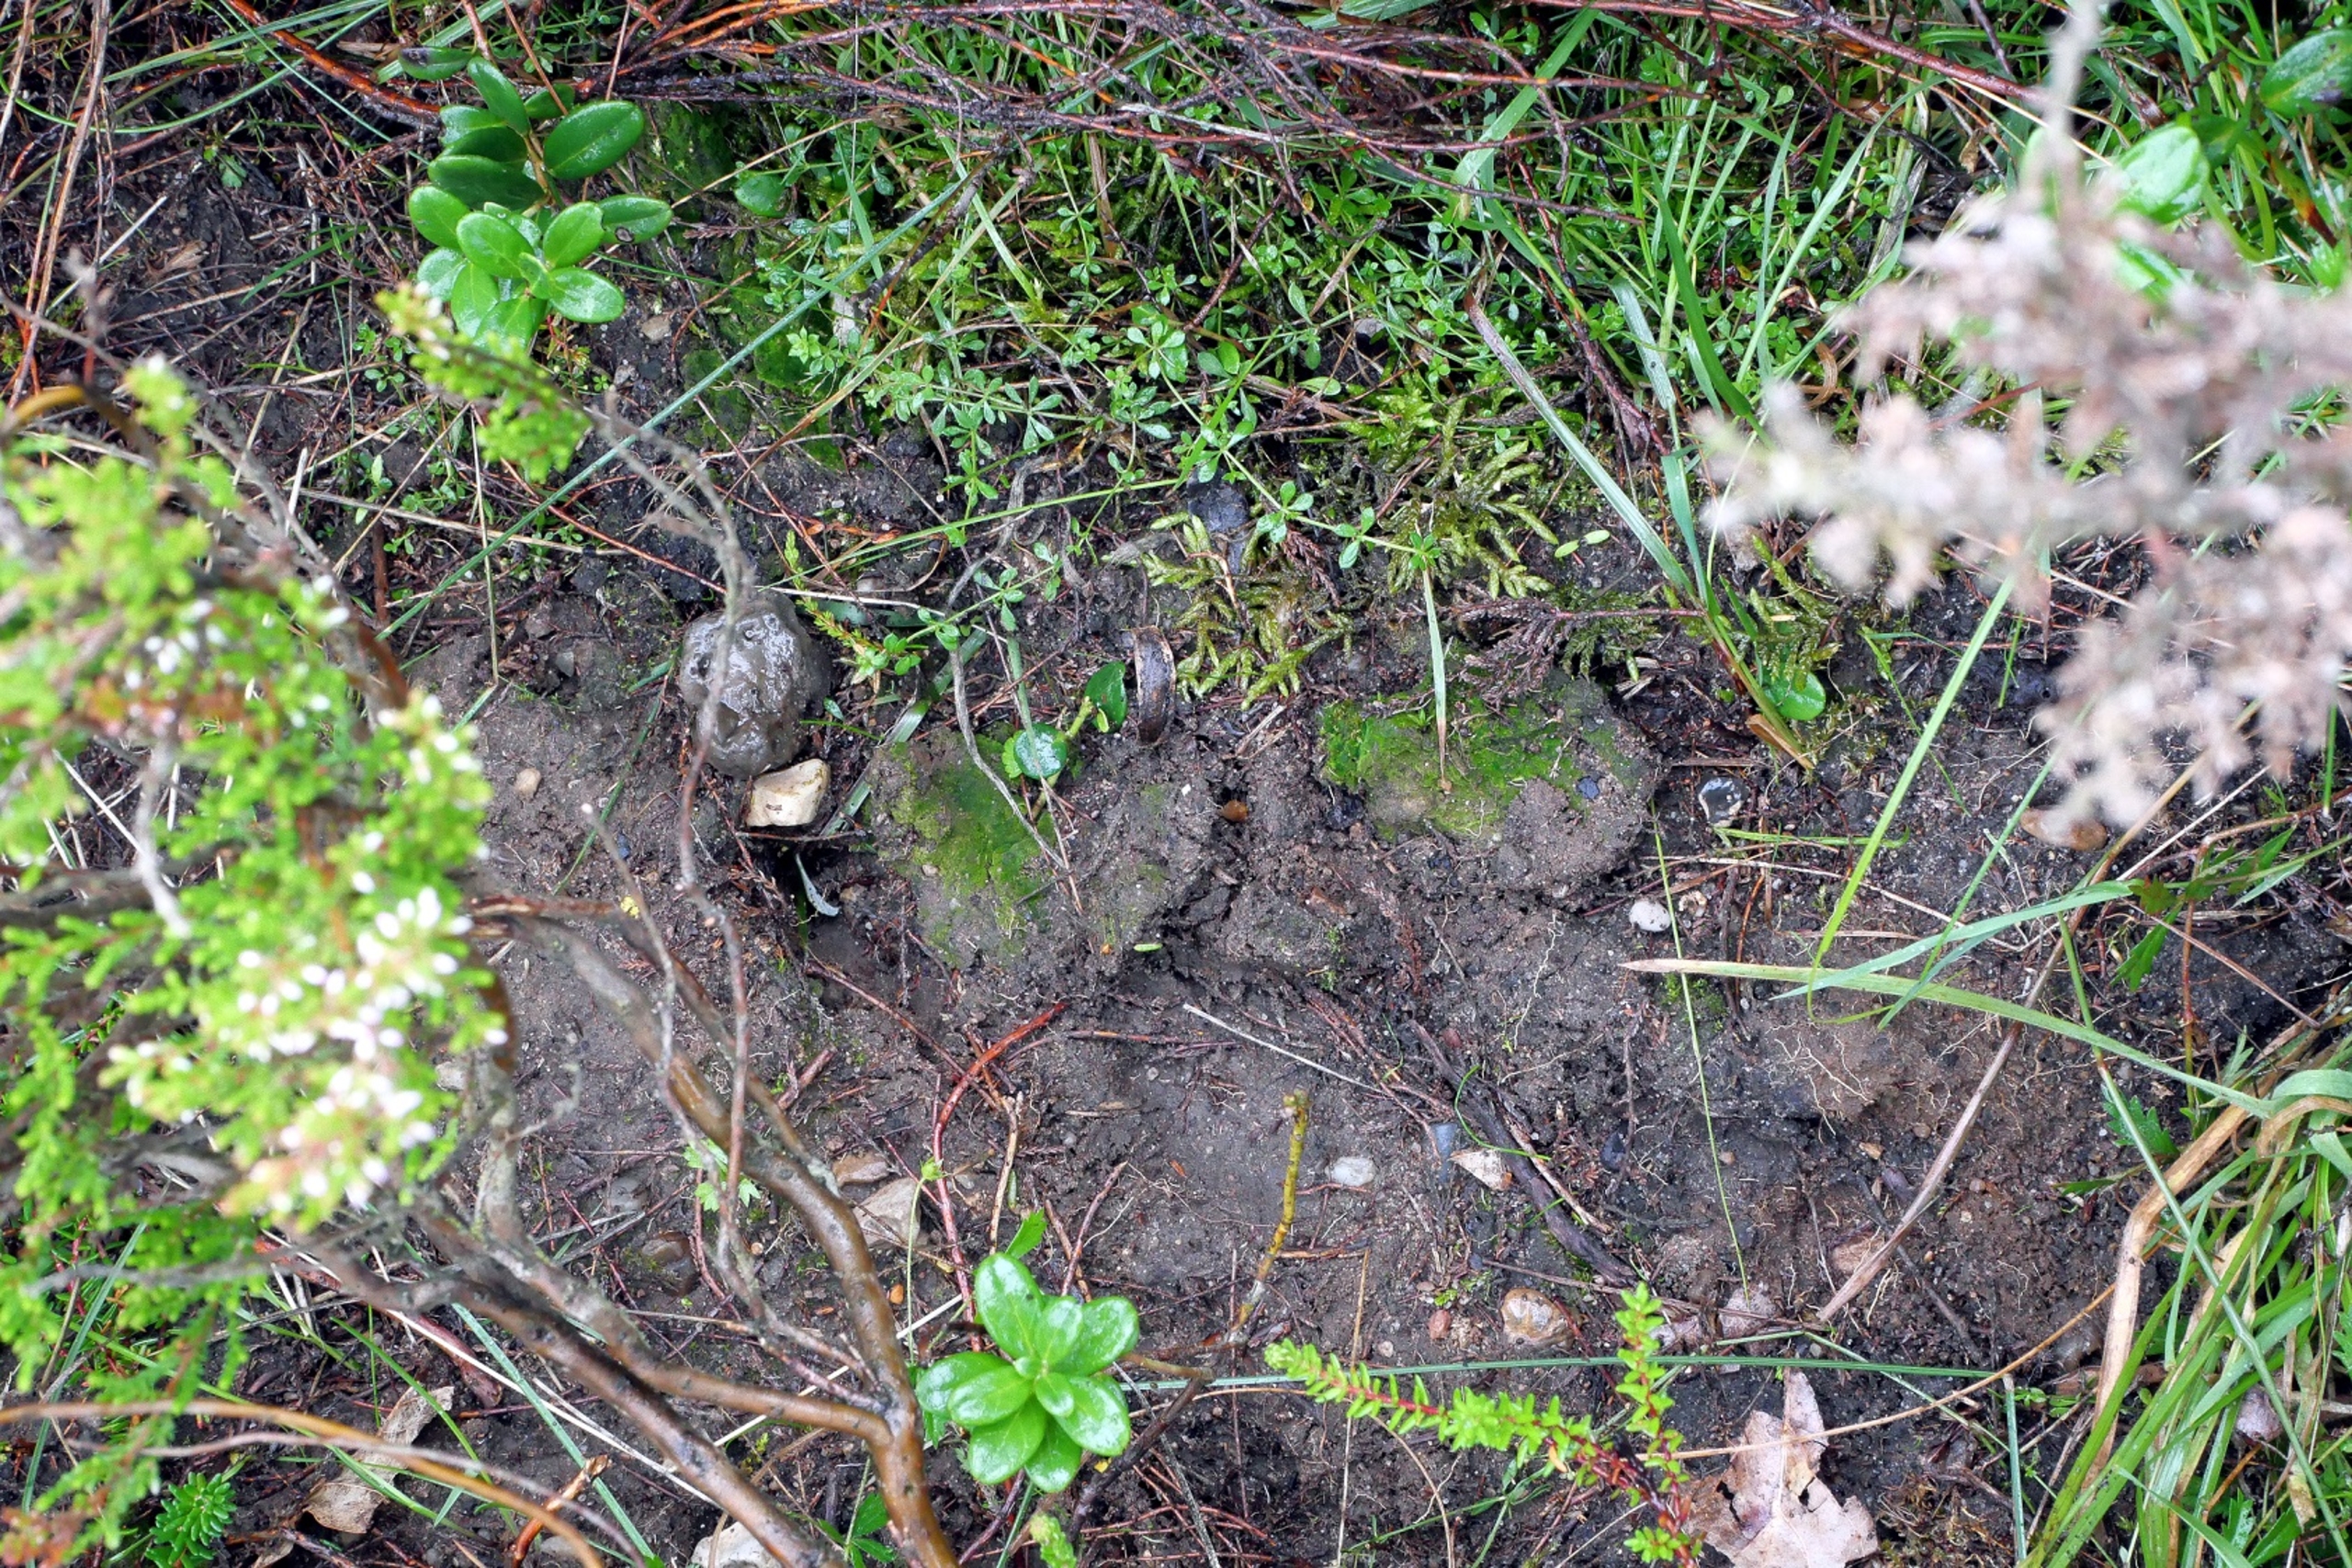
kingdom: Plantae
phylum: Bryophyta
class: Polytrichopsida
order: Polytrichales
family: Polytrichaceae
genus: Pogonatum
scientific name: Pogonatum nanum
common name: Dværg-urnekapsel
